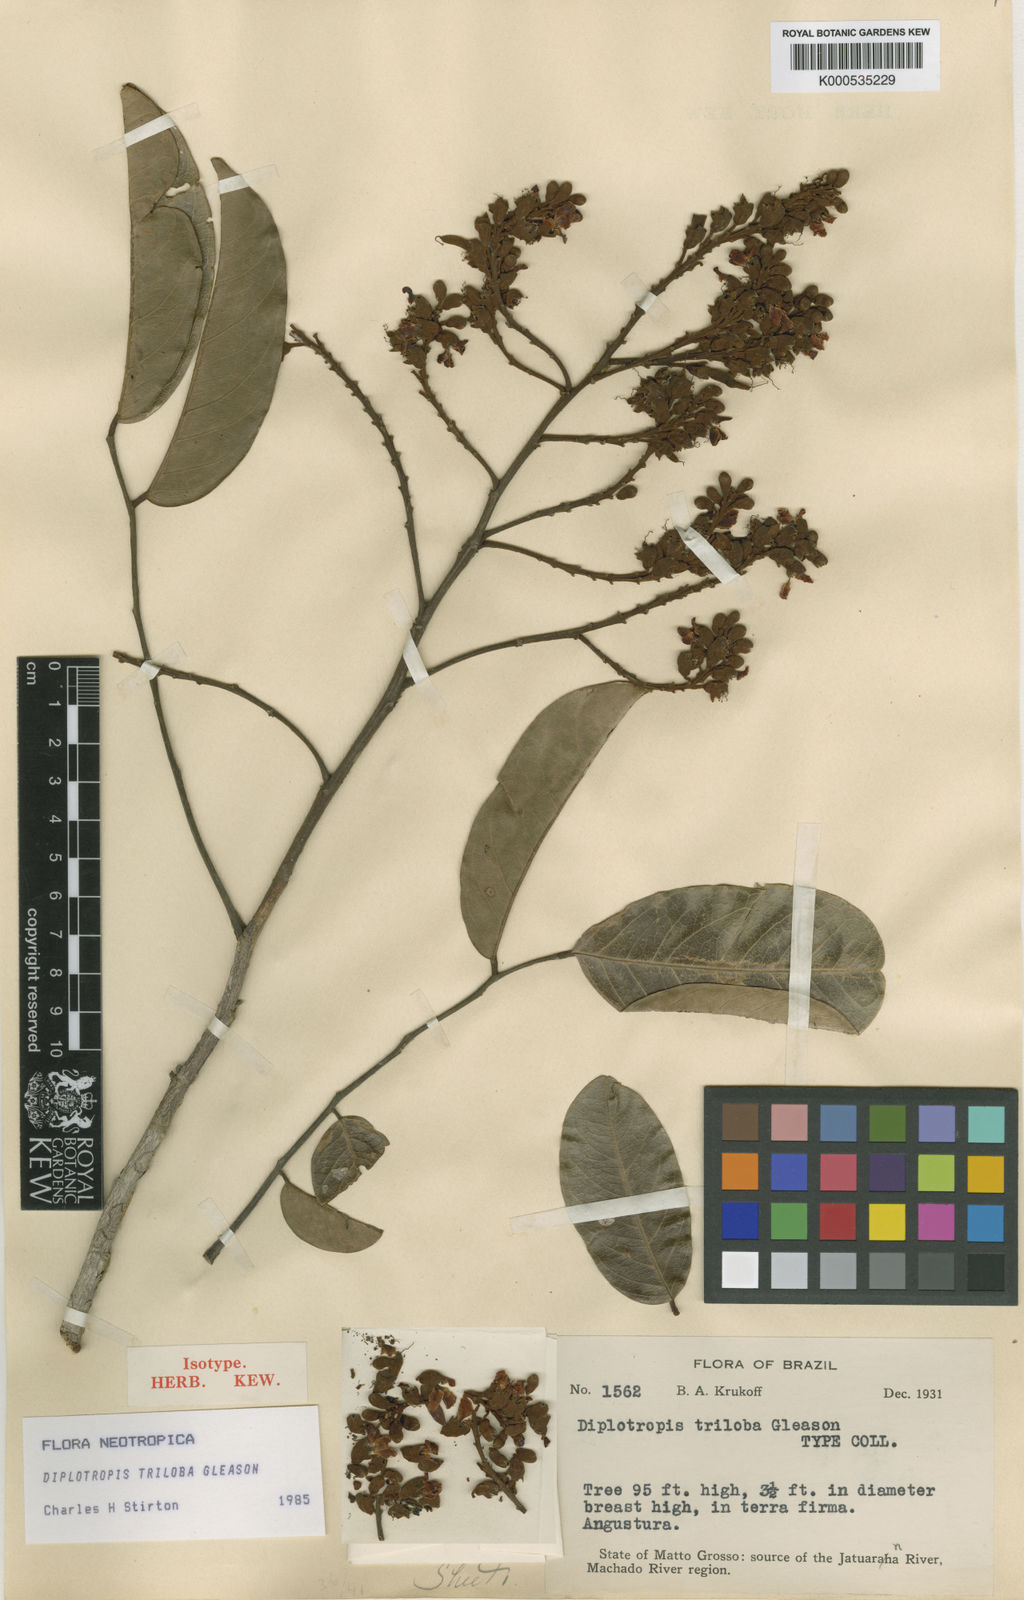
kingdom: Plantae
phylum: Tracheophyta
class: Magnoliopsida
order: Fabales
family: Fabaceae
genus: Diplotropis
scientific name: Diplotropis triloba
